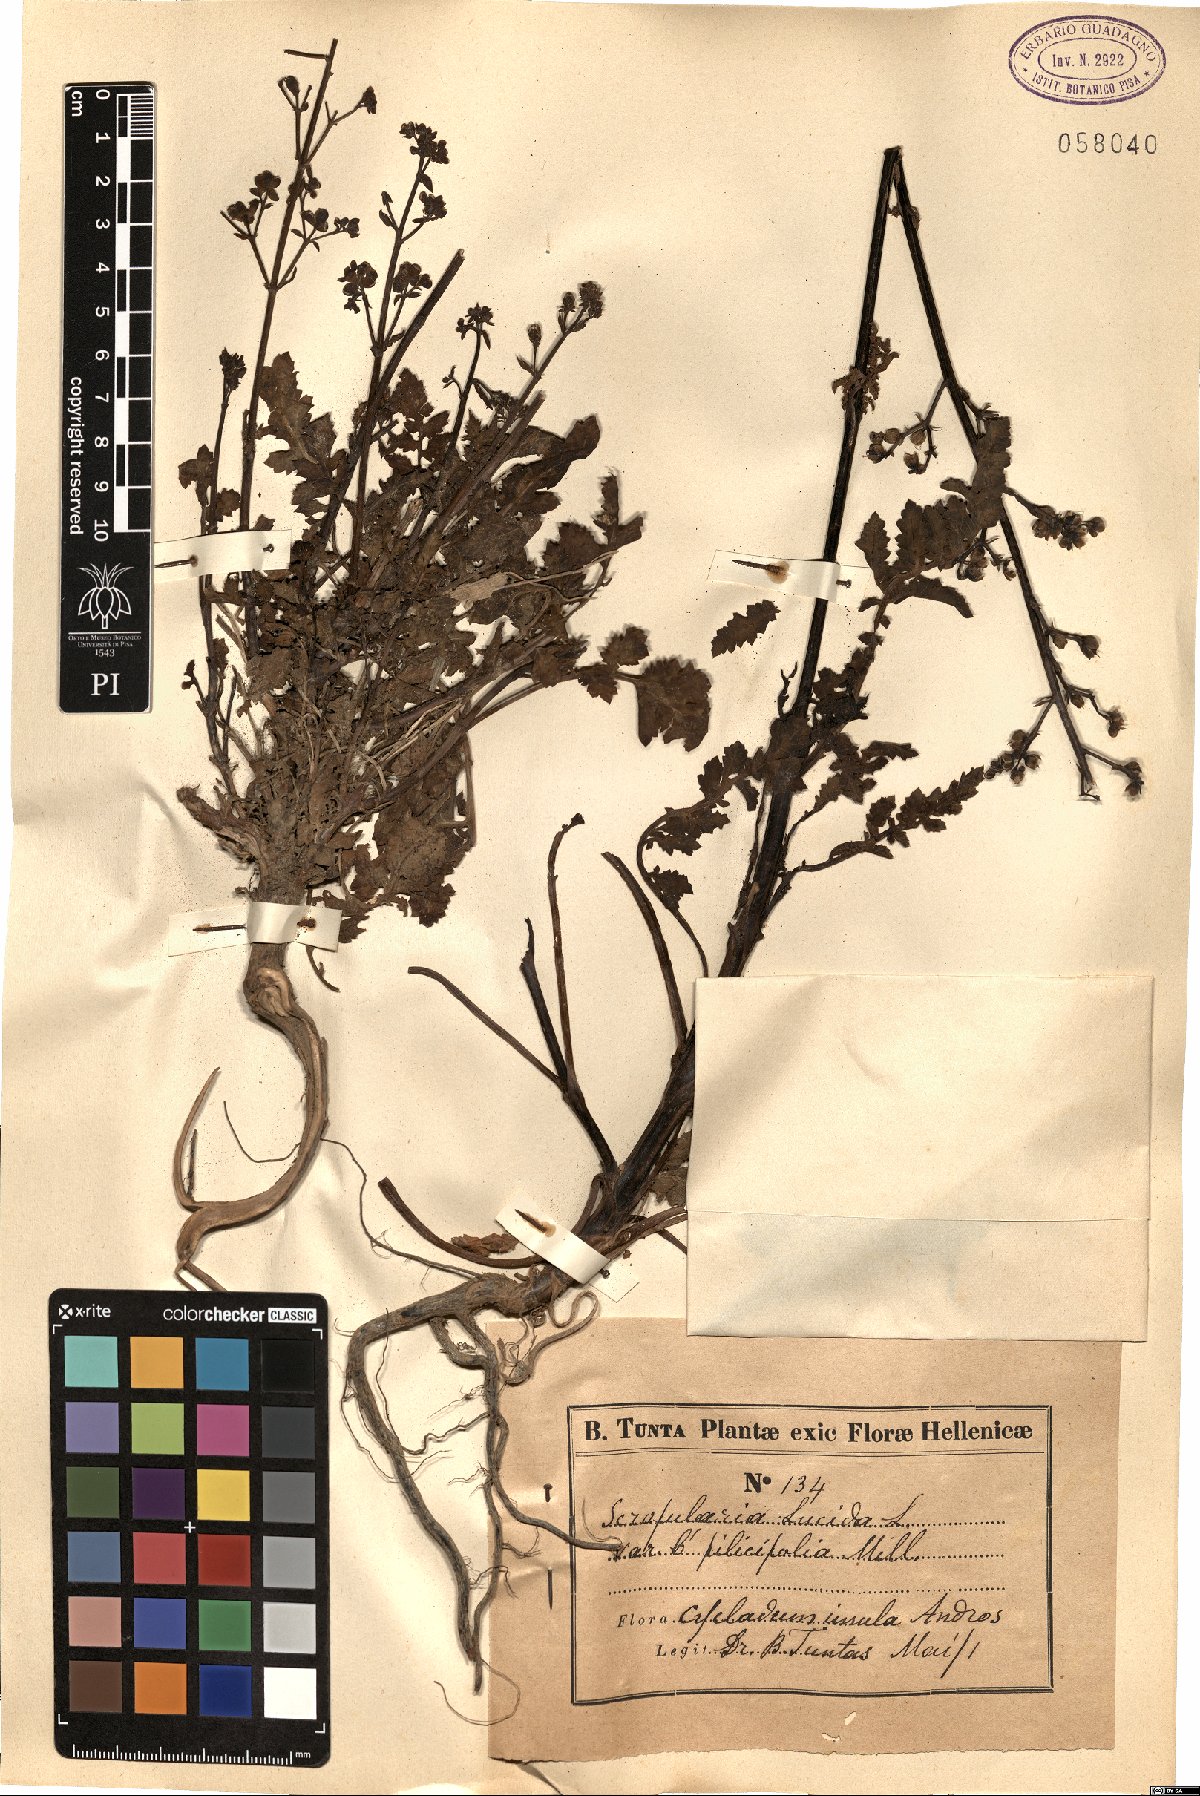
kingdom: Plantae
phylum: Tracheophyta
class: Magnoliopsida
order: Lamiales
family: Scrophulariaceae
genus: Scrophularia
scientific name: Scrophularia lucida
